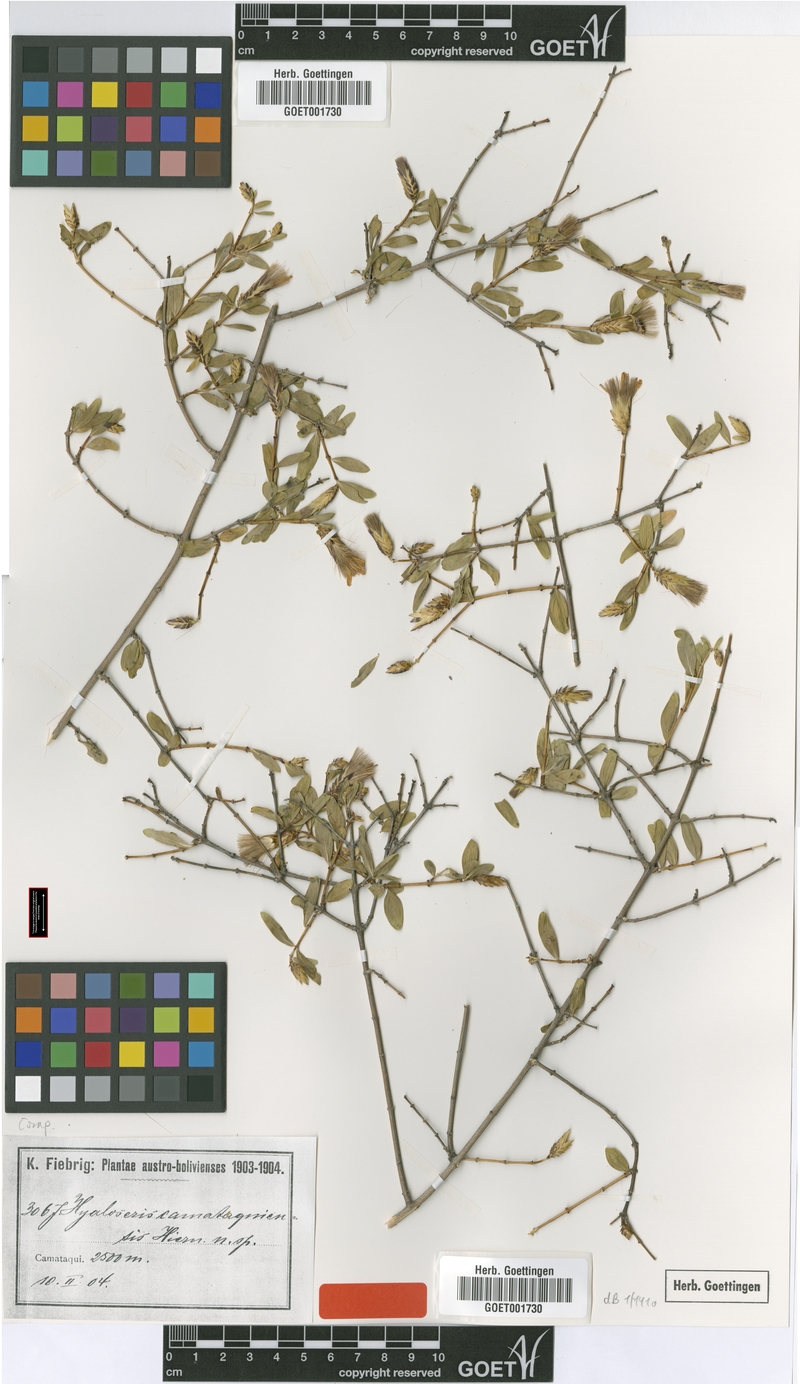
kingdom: Plantae
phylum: Tracheophyta
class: Magnoliopsida
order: Asterales
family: Asteraceae
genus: Hyaloseris
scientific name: Hyaloseris catamaquiensis
